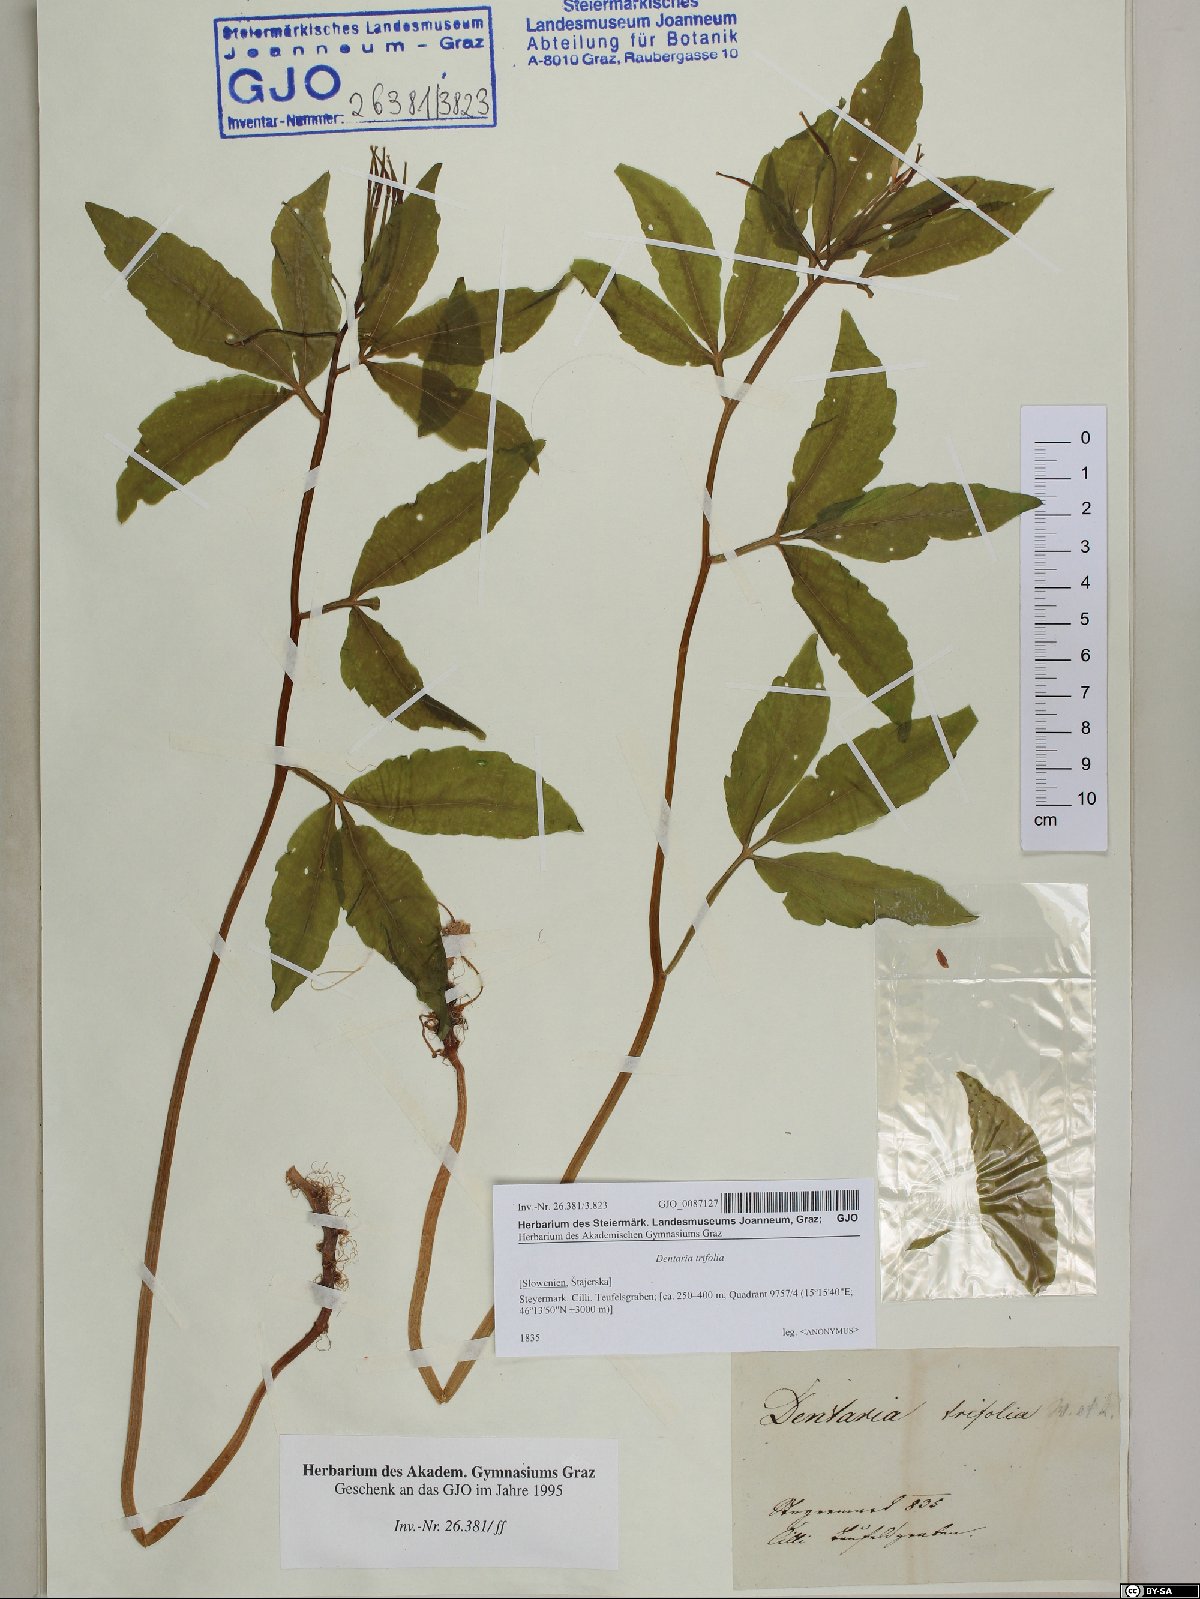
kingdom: Plantae
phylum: Tracheophyta
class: Magnoliopsida
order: Brassicales
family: Brassicaceae
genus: Cardamine
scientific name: Cardamine waldsteinii
